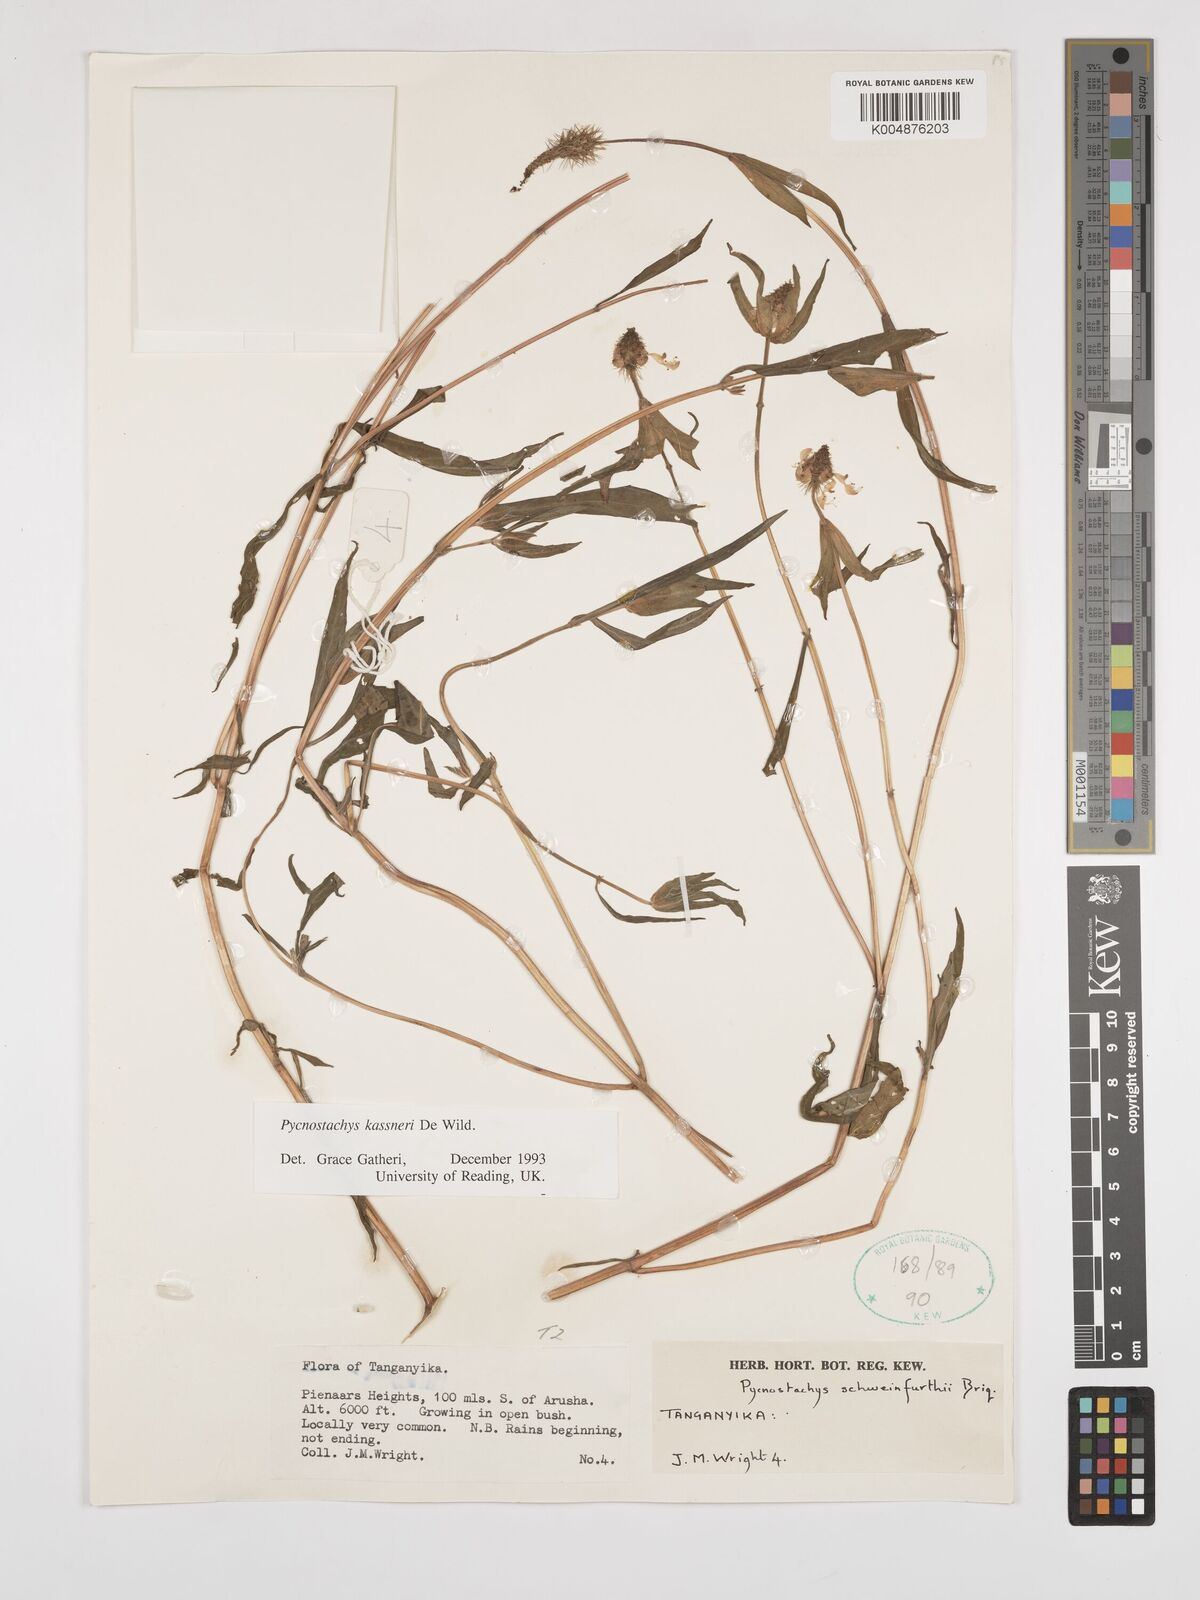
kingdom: Plantae
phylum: Tracheophyta
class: Magnoliopsida
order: Lamiales
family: Lamiaceae
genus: Coleus
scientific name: Coleus scruposus
